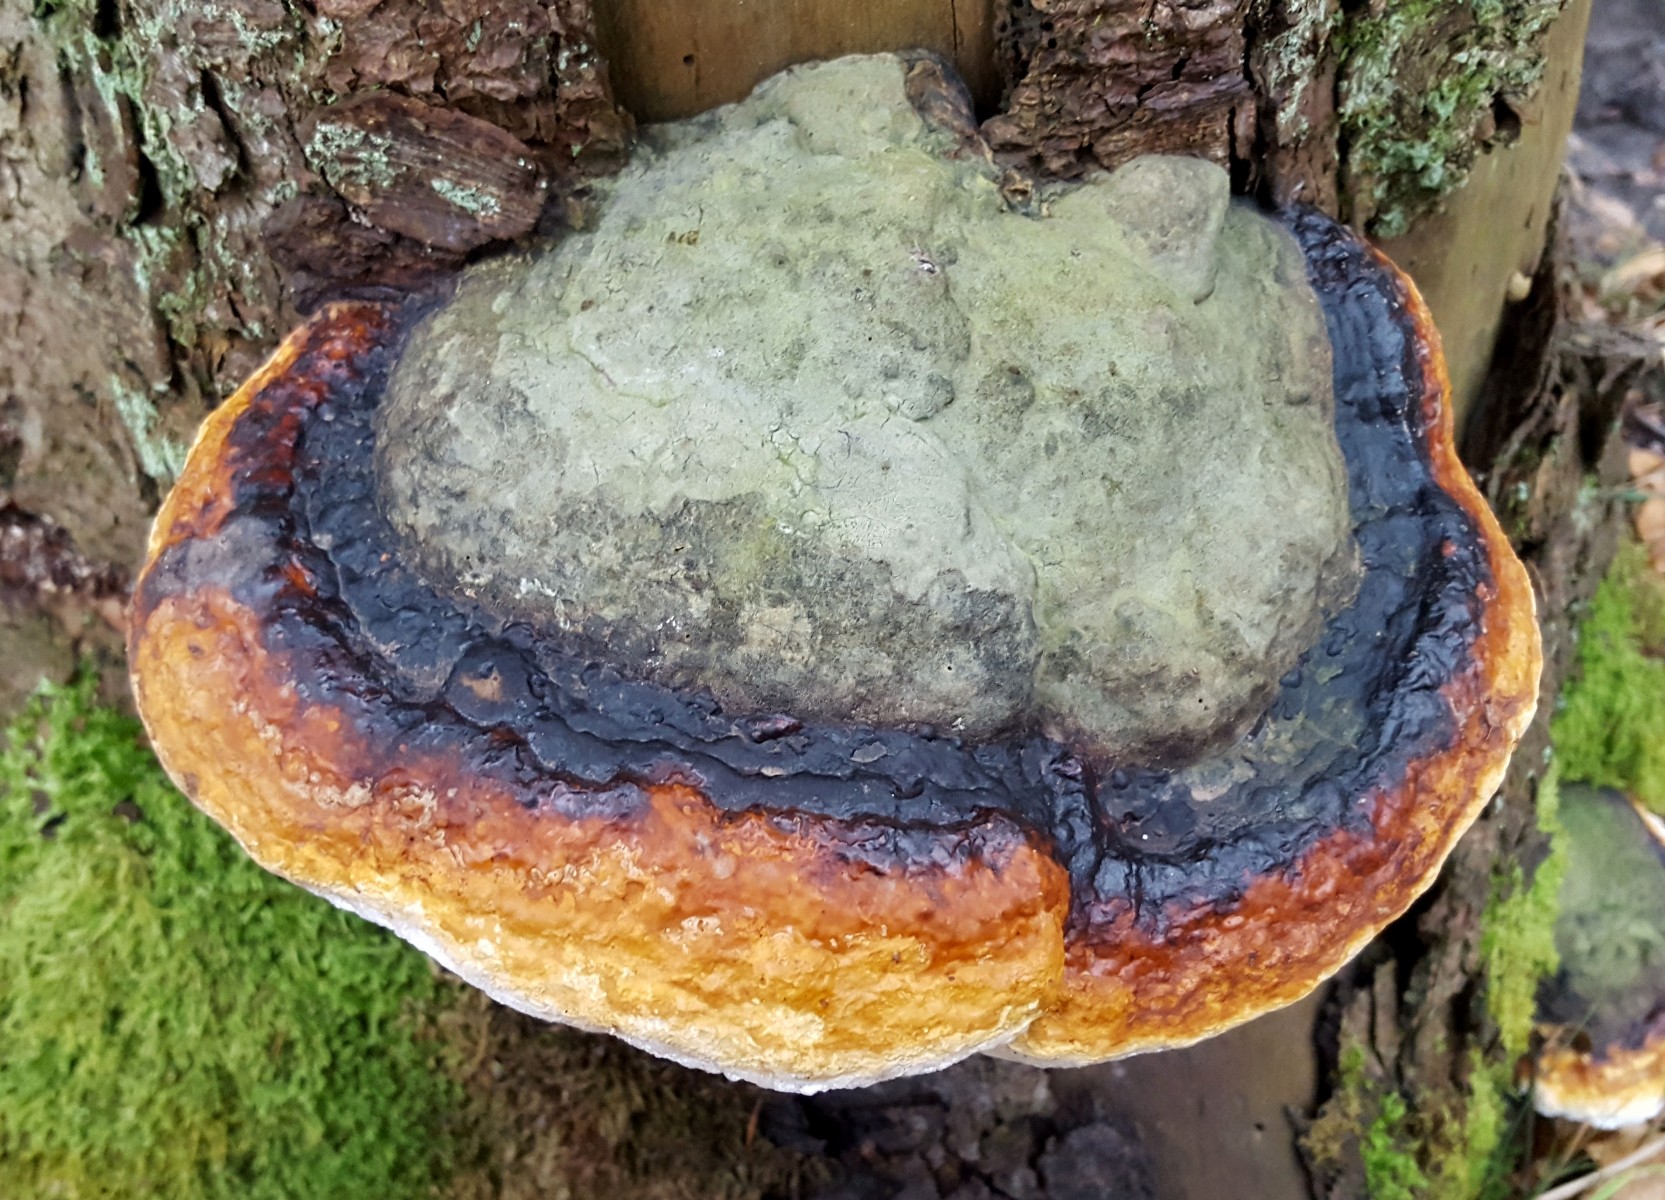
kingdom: Fungi
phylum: Basidiomycota
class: Agaricomycetes
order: Polyporales
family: Fomitopsidaceae
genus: Fomitopsis
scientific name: Fomitopsis pinicola
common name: randbæltet hovporesvamp
